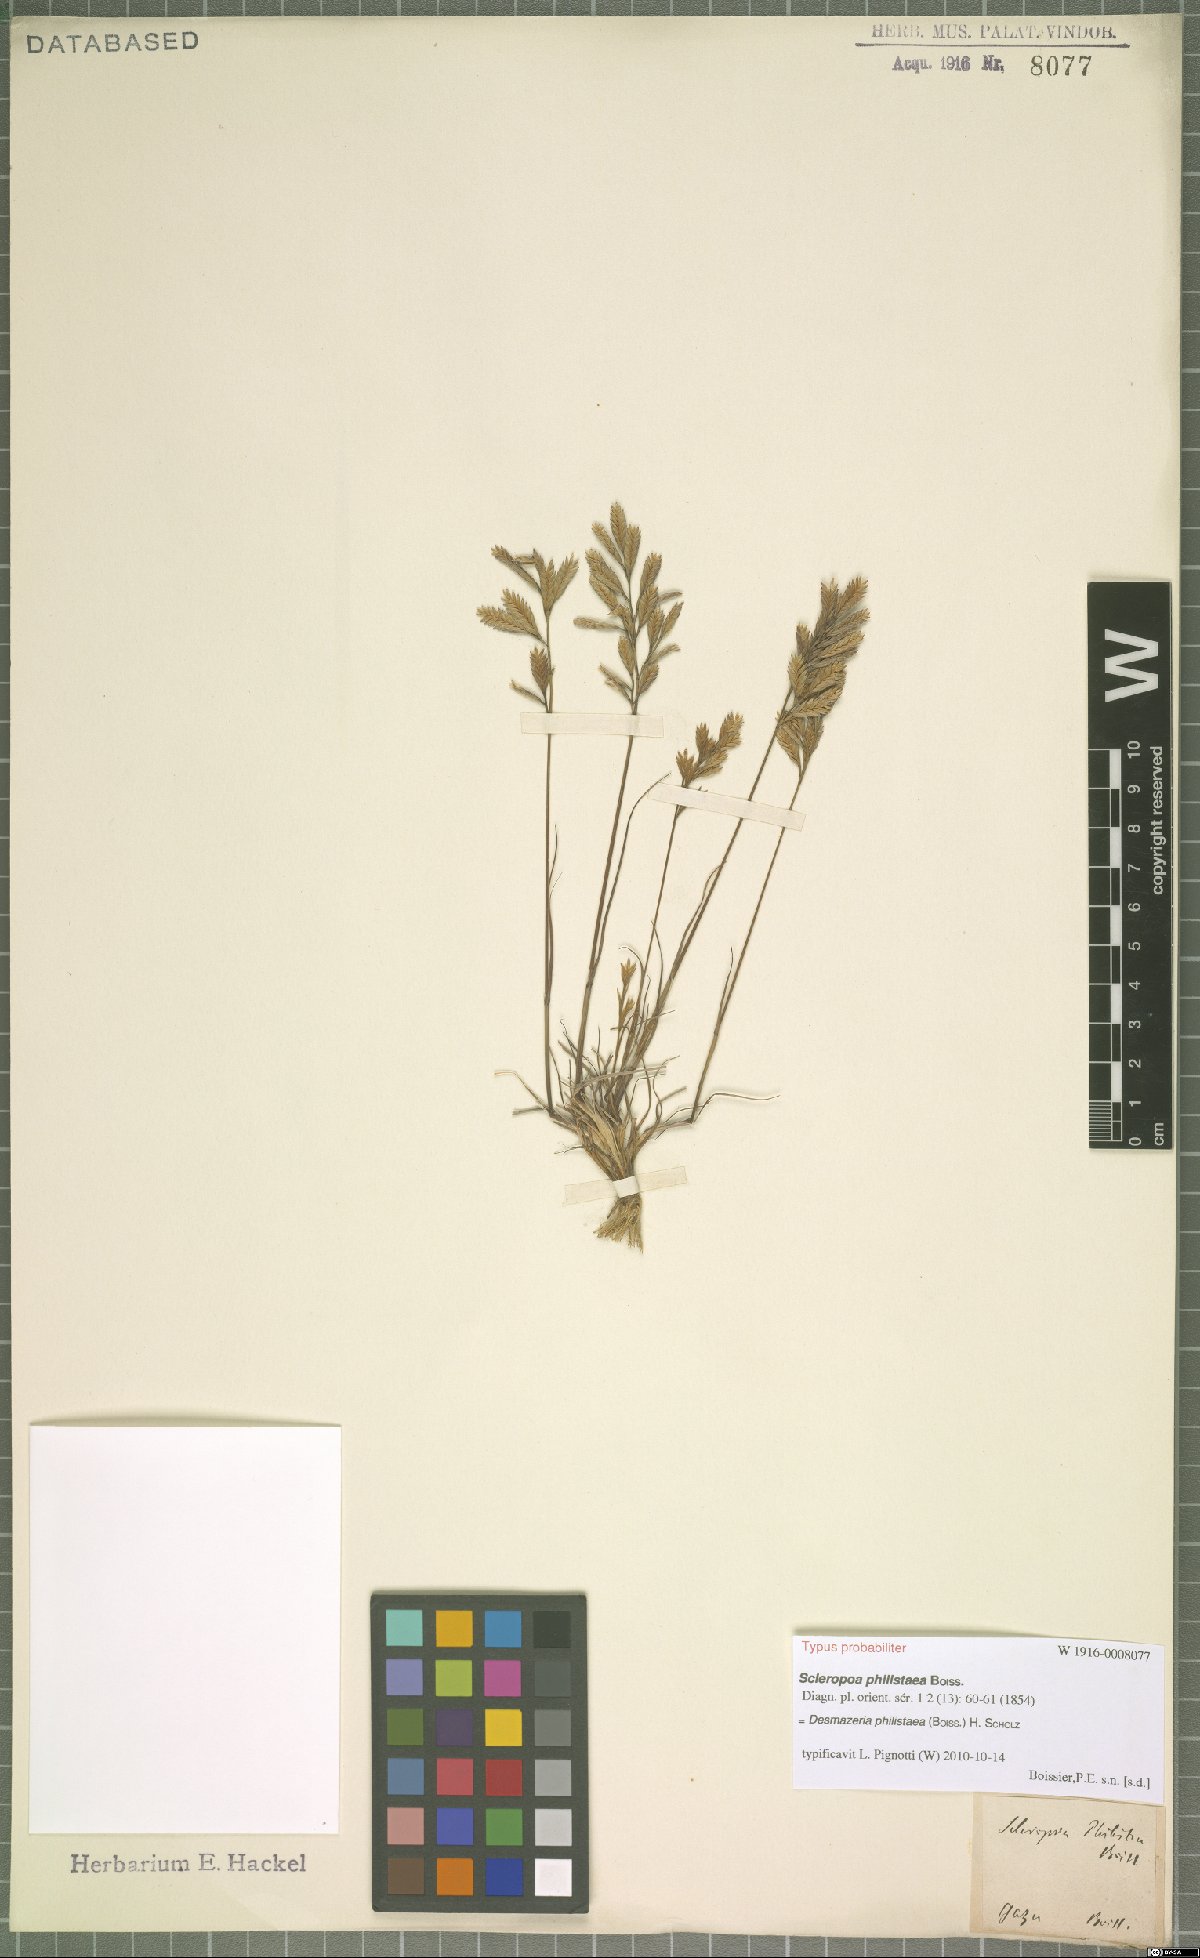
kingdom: Plantae
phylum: Tracheophyta
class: Liliopsida
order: Poales
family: Poaceae
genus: Desmazeria
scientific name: Desmazeria philistaea
